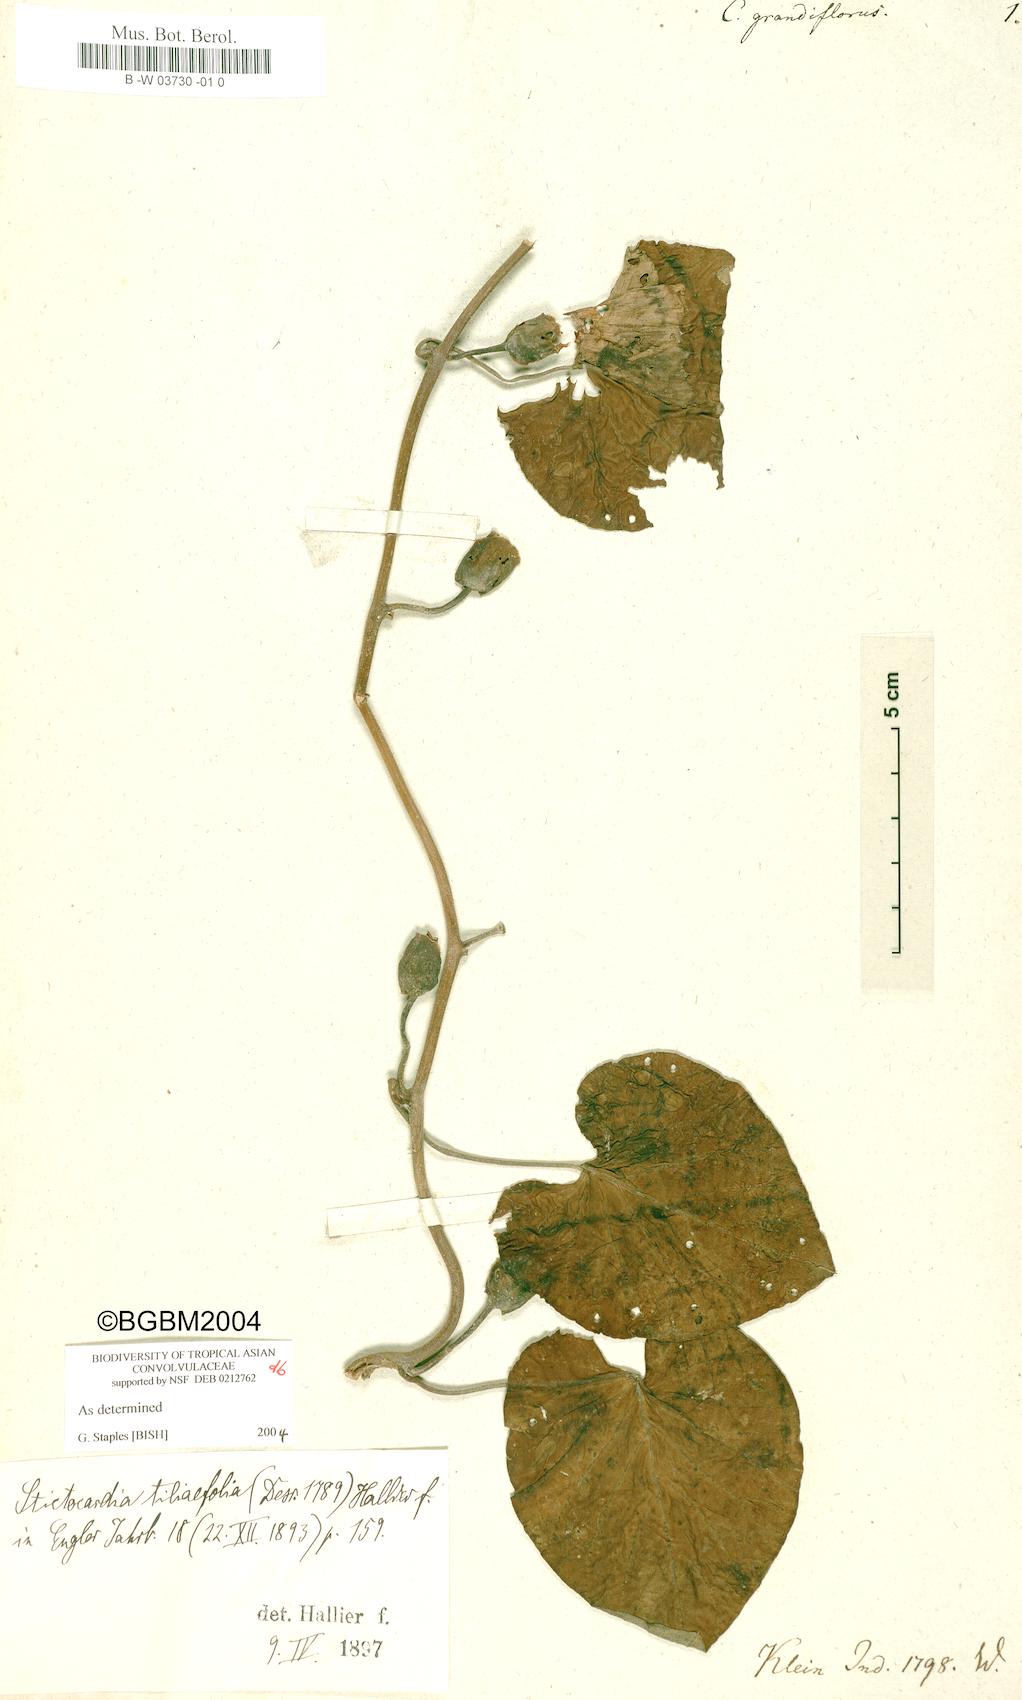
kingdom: Plantae
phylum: Tracheophyta
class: Magnoliopsida
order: Solanales
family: Convolvulaceae
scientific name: Convolvulaceae
